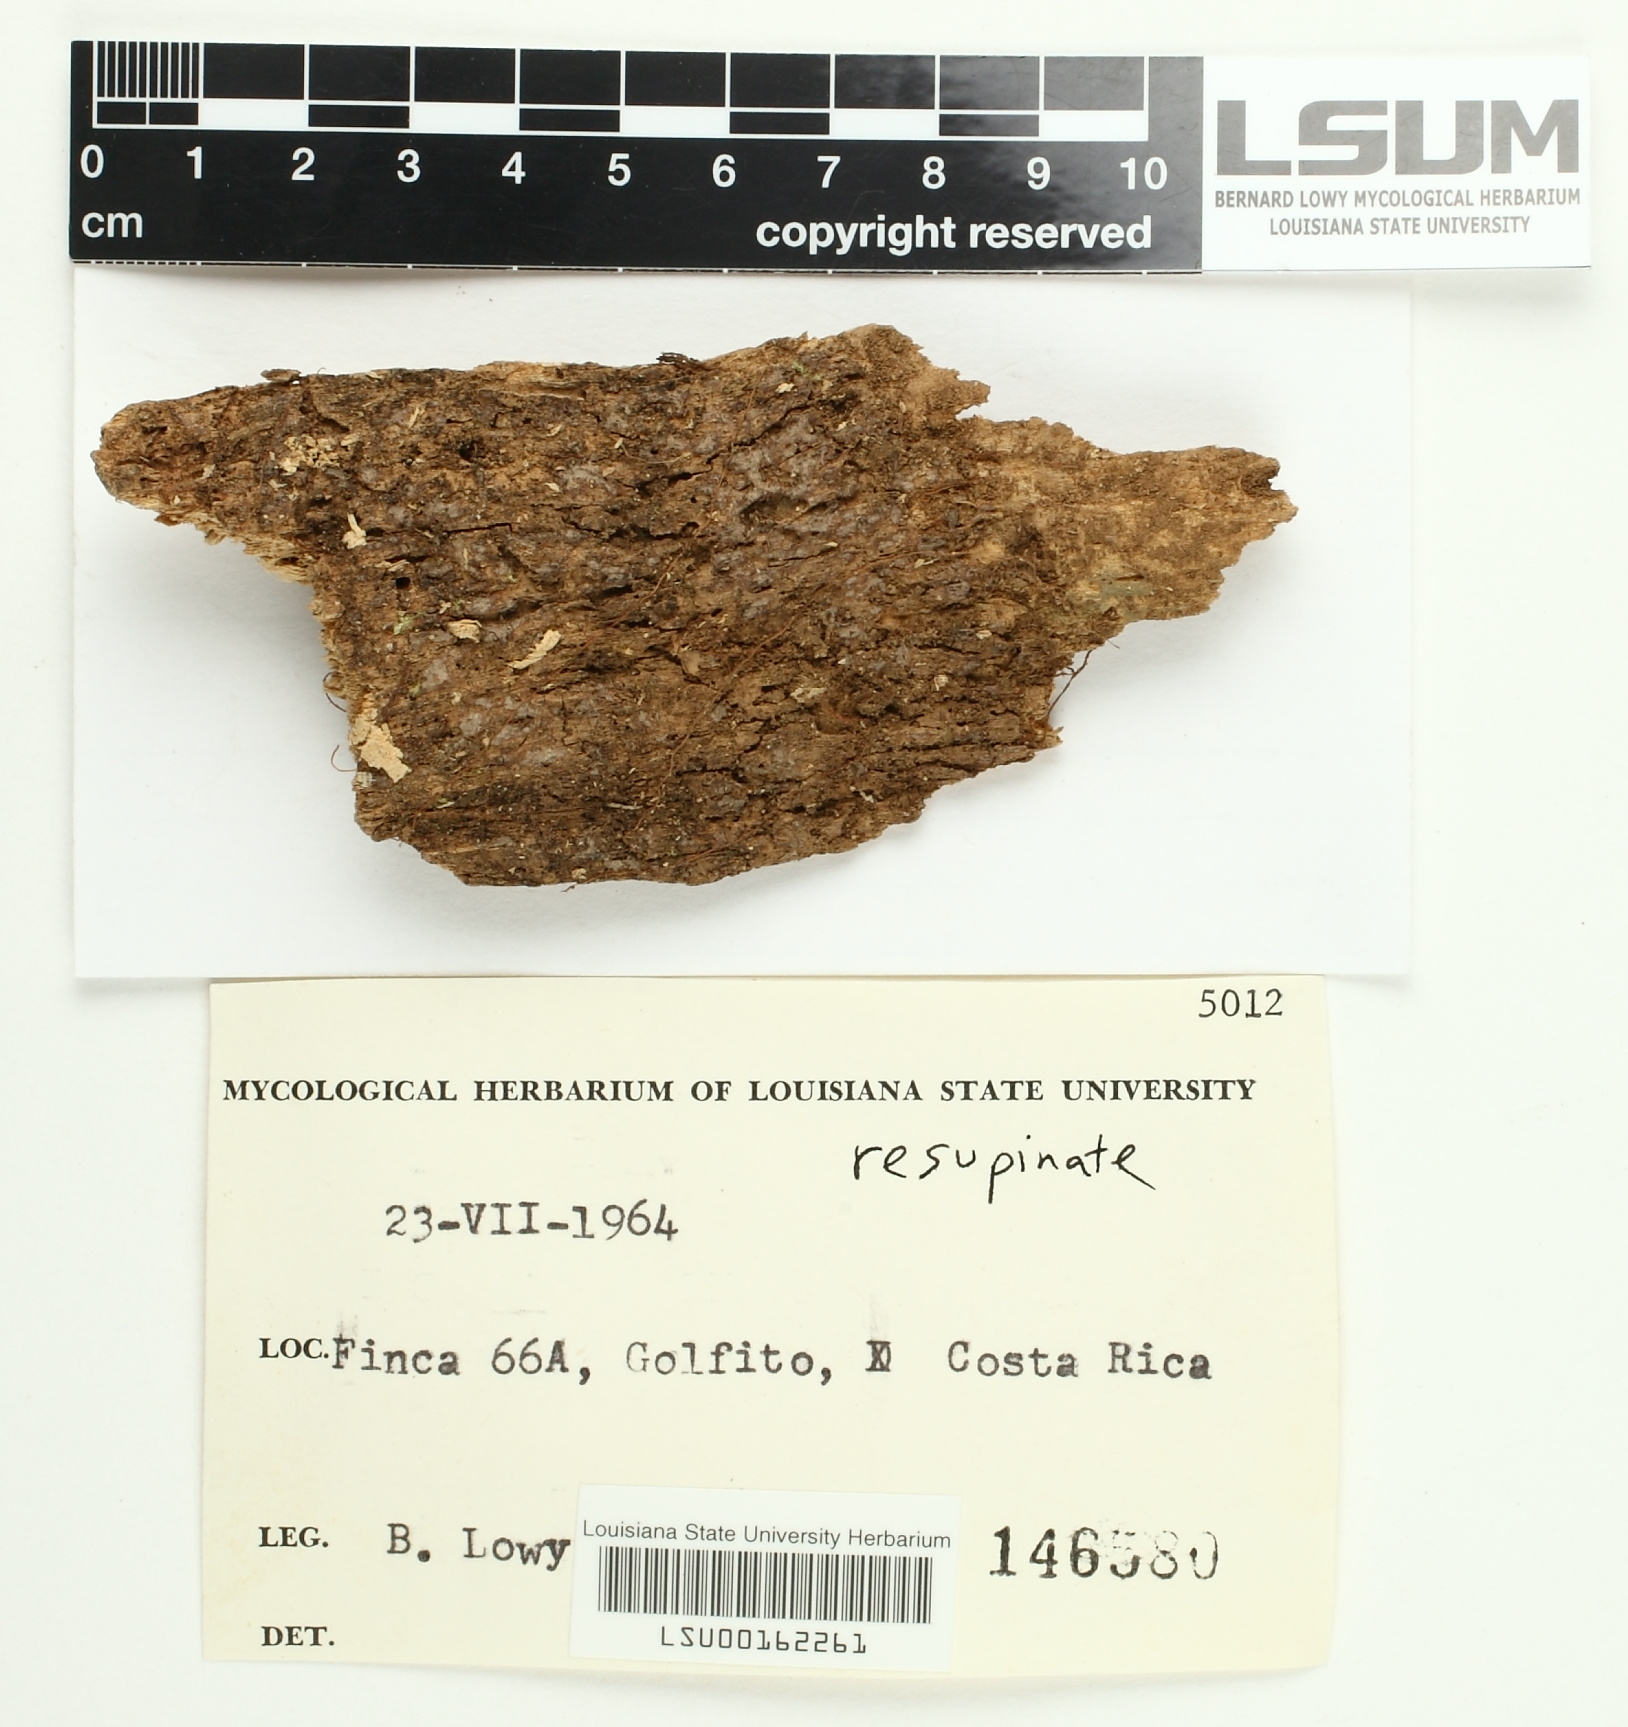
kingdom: Fungi
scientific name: Fungi
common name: Fungi
